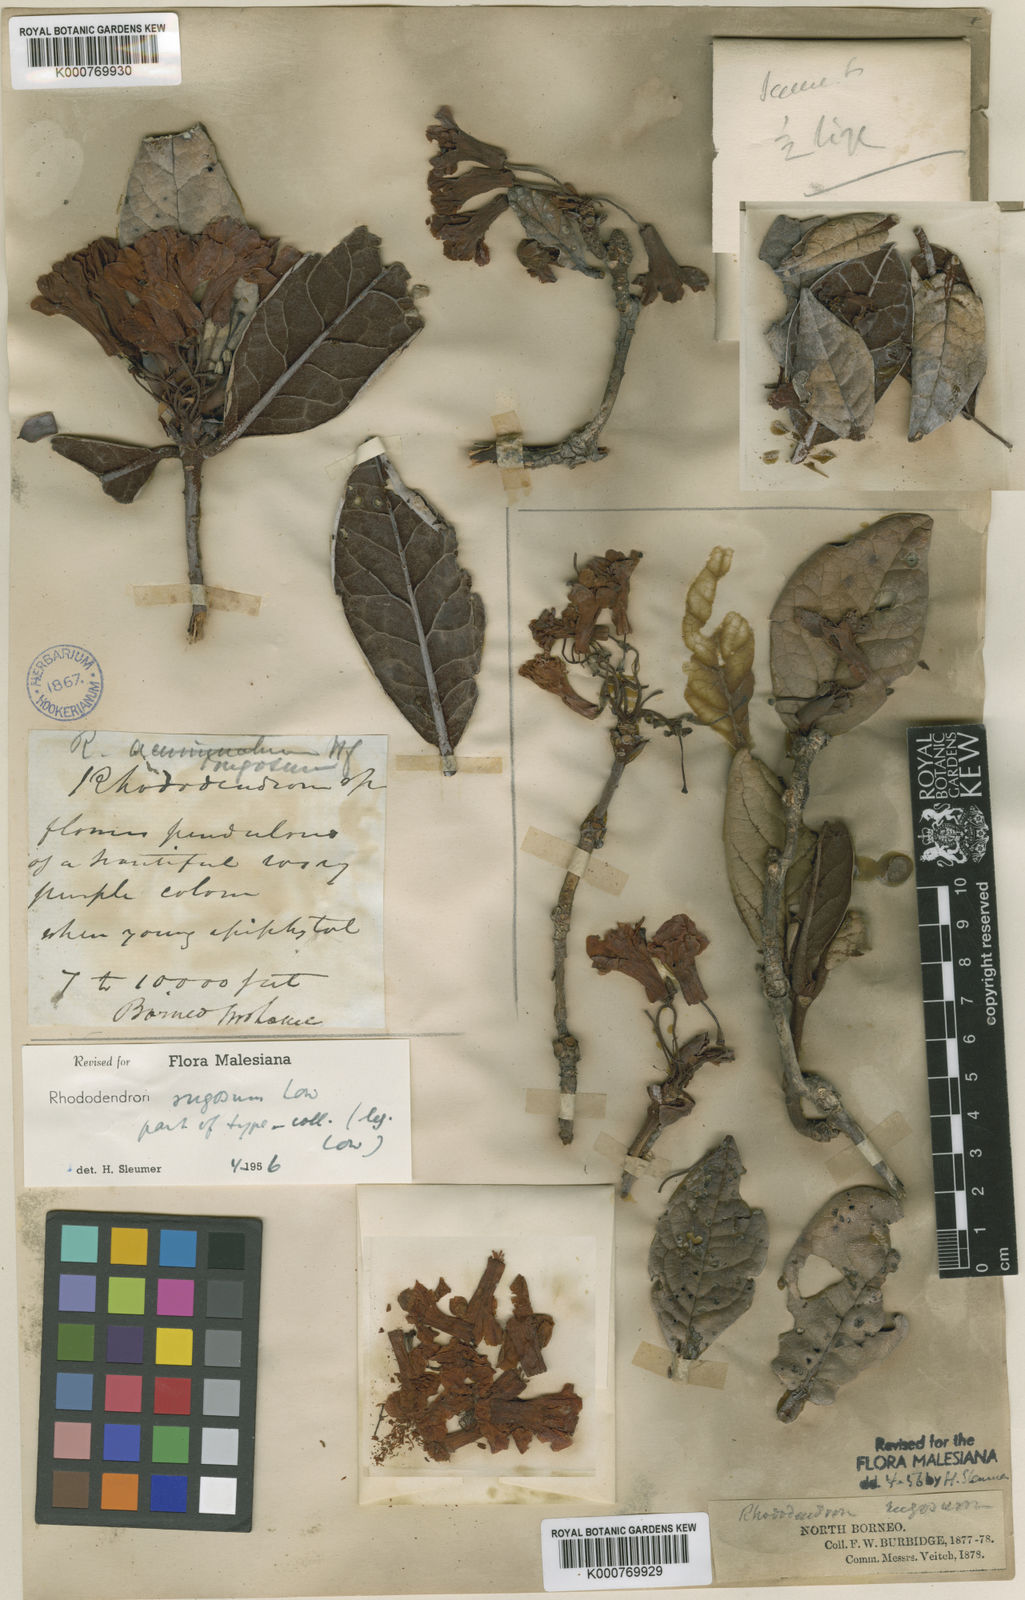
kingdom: Plantae
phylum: Tracheophyta
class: Magnoliopsida
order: Ericales
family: Ericaceae
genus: Rhododendron
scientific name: Rhododendron acuminatum
